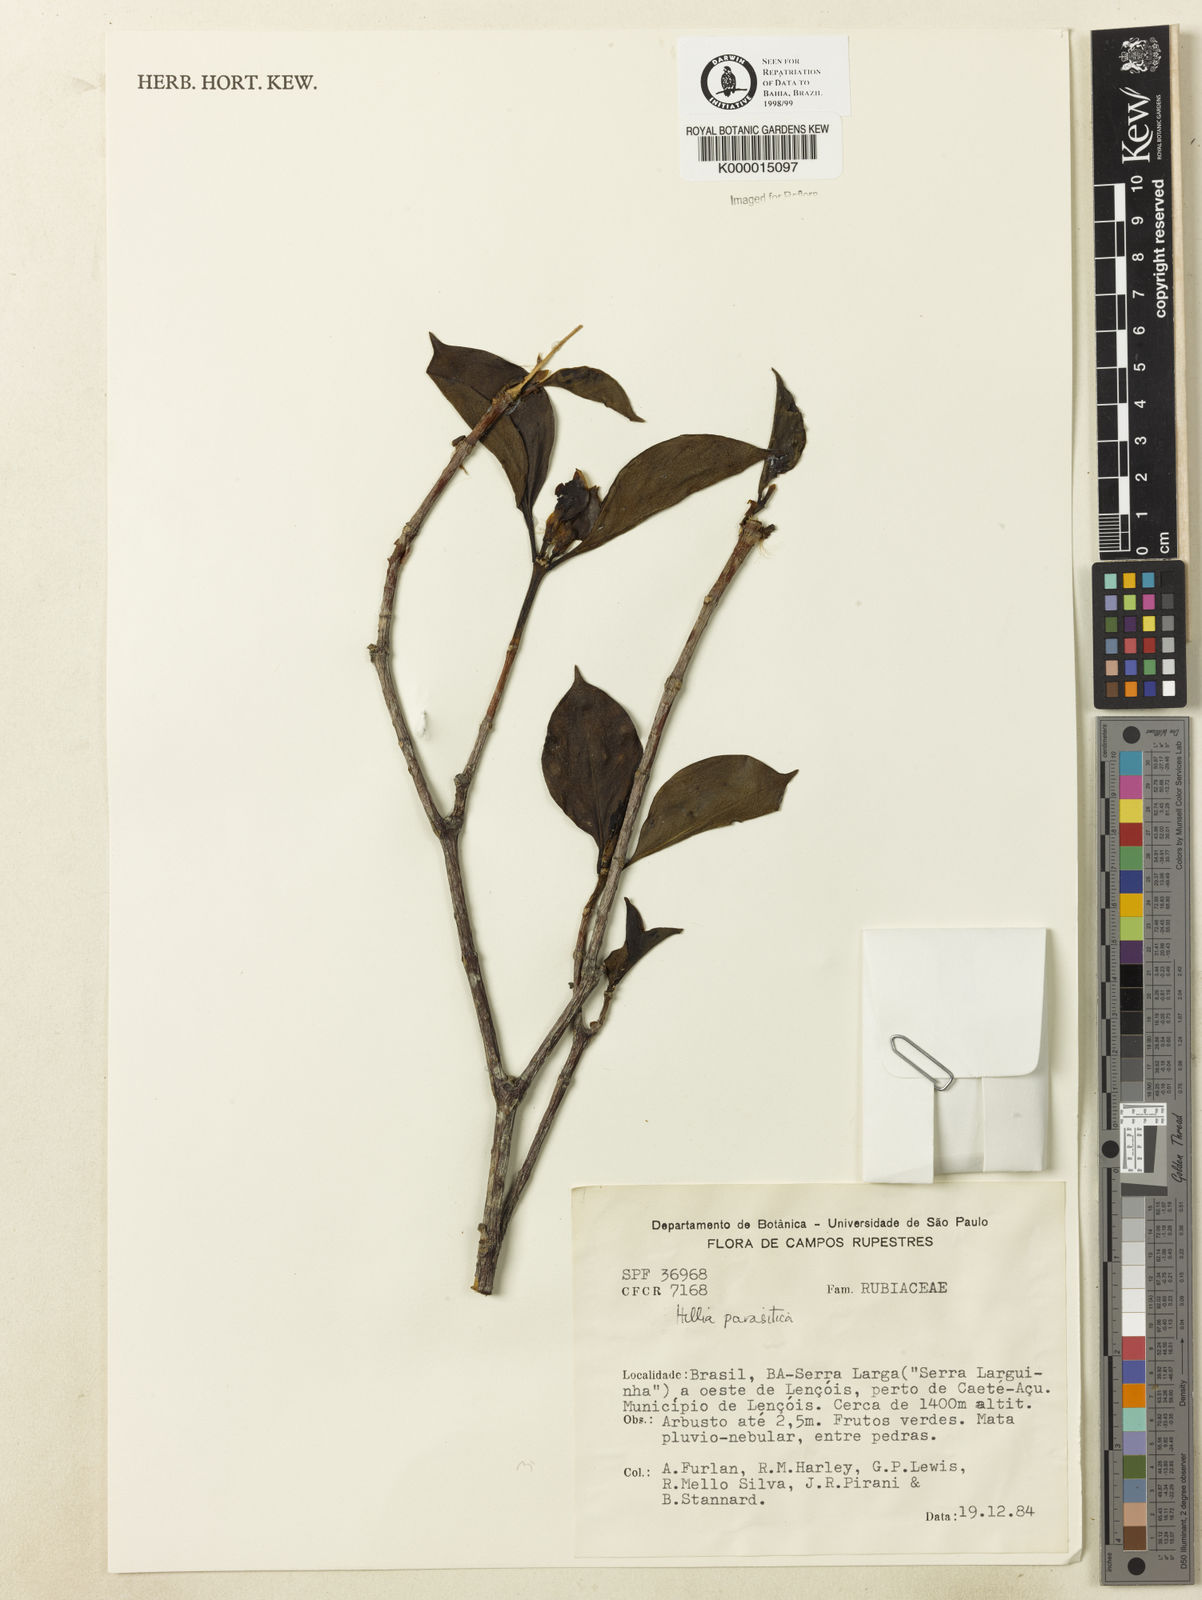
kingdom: Plantae
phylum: Tracheophyta
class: Magnoliopsida
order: Gentianales
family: Rubiaceae
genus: Hillia
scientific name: Hillia parasitica
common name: Morning star
